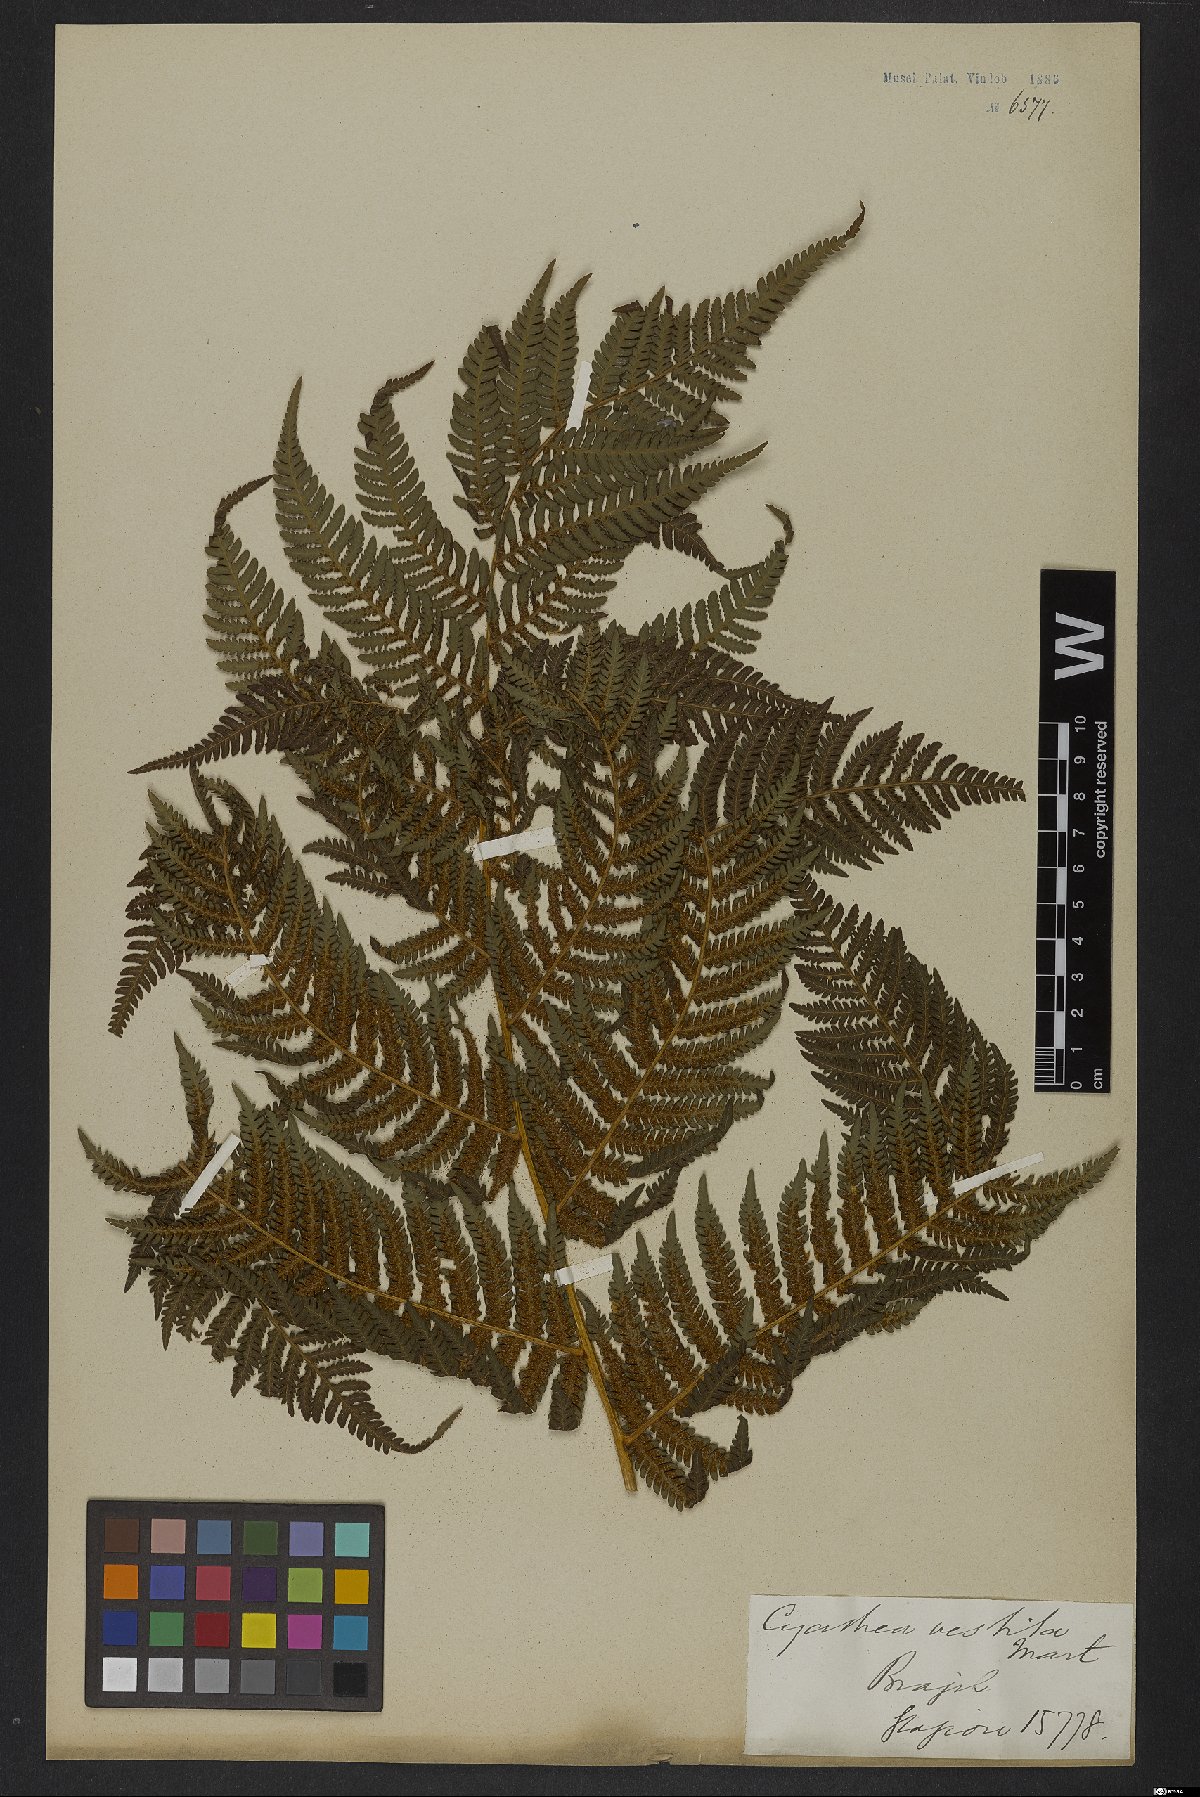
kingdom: Plantae
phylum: Tracheophyta
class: Polypodiopsida
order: Cyatheales
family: Cyatheaceae
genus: Cyathea
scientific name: Cyathea delgadii
